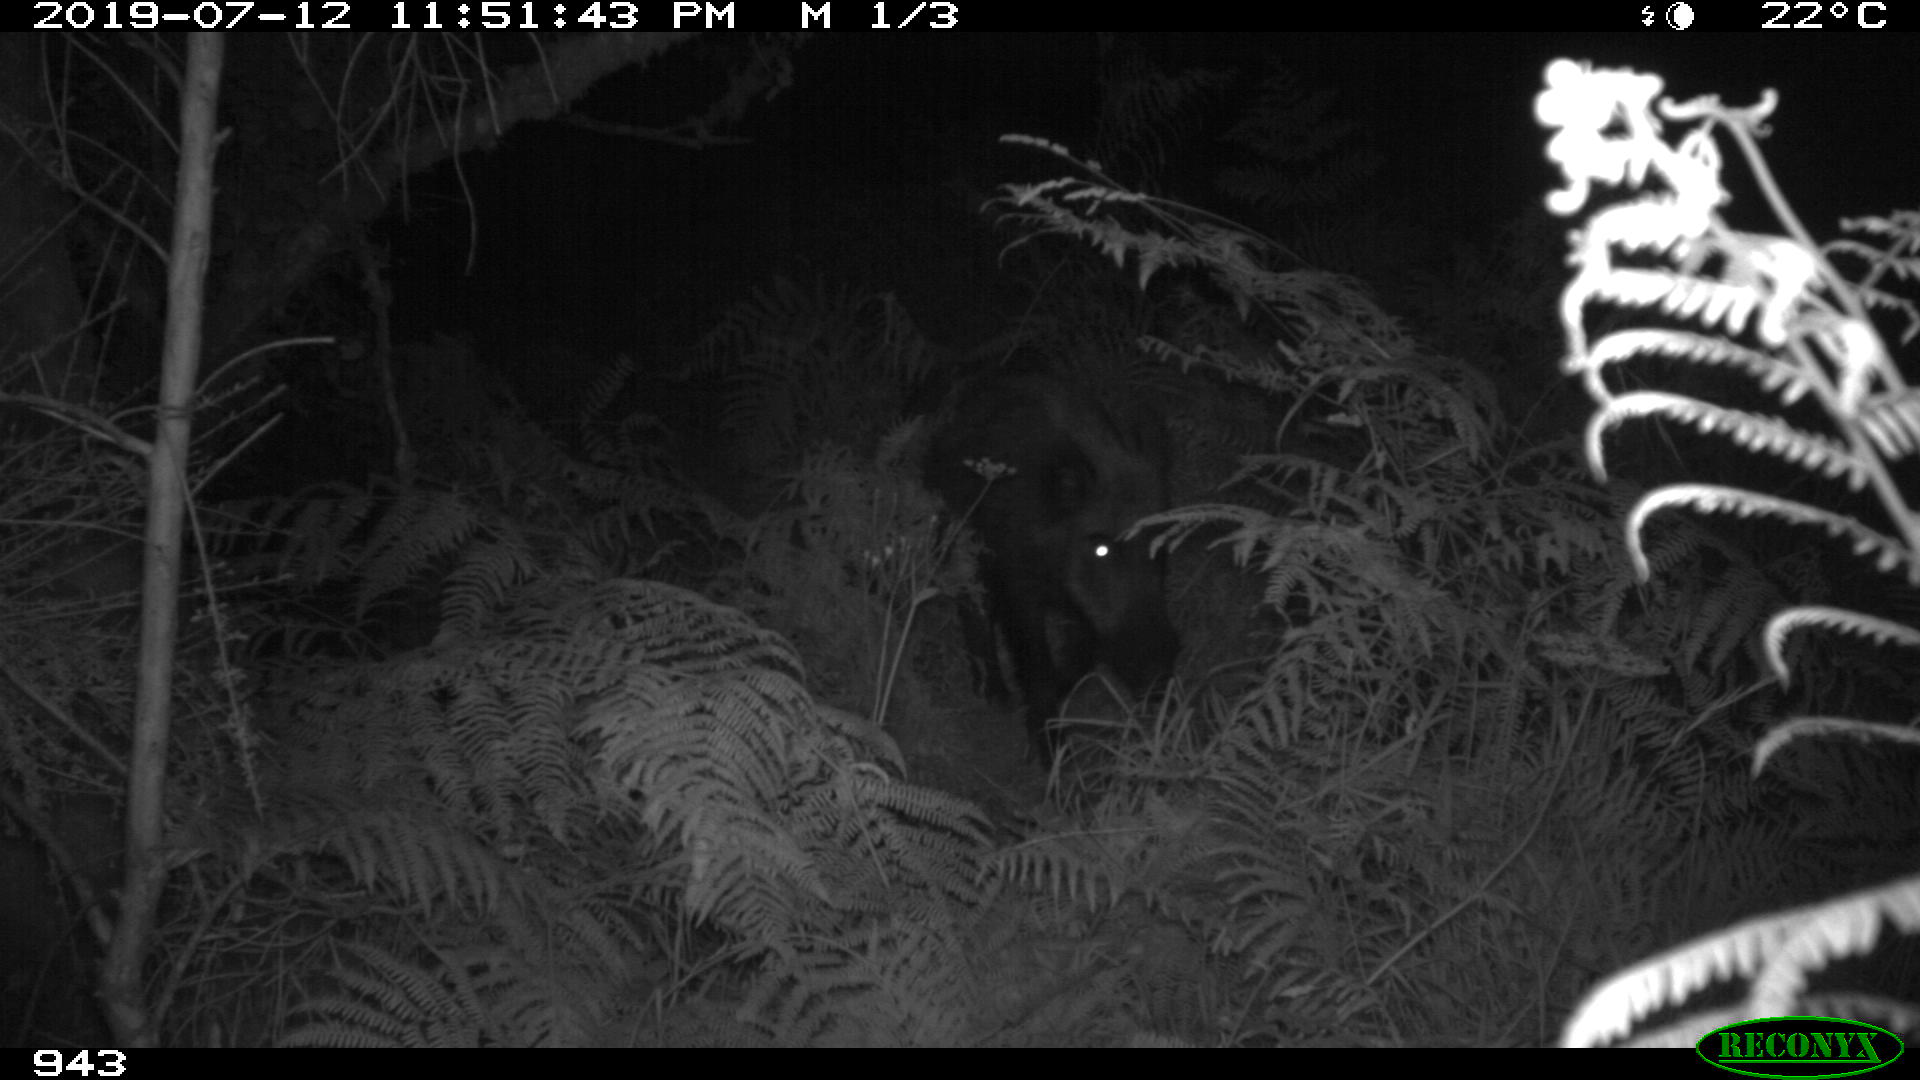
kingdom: Animalia
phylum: Chordata
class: Mammalia
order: Artiodactyla
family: Suidae
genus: Sus
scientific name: Sus scrofa
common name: Wild boar
